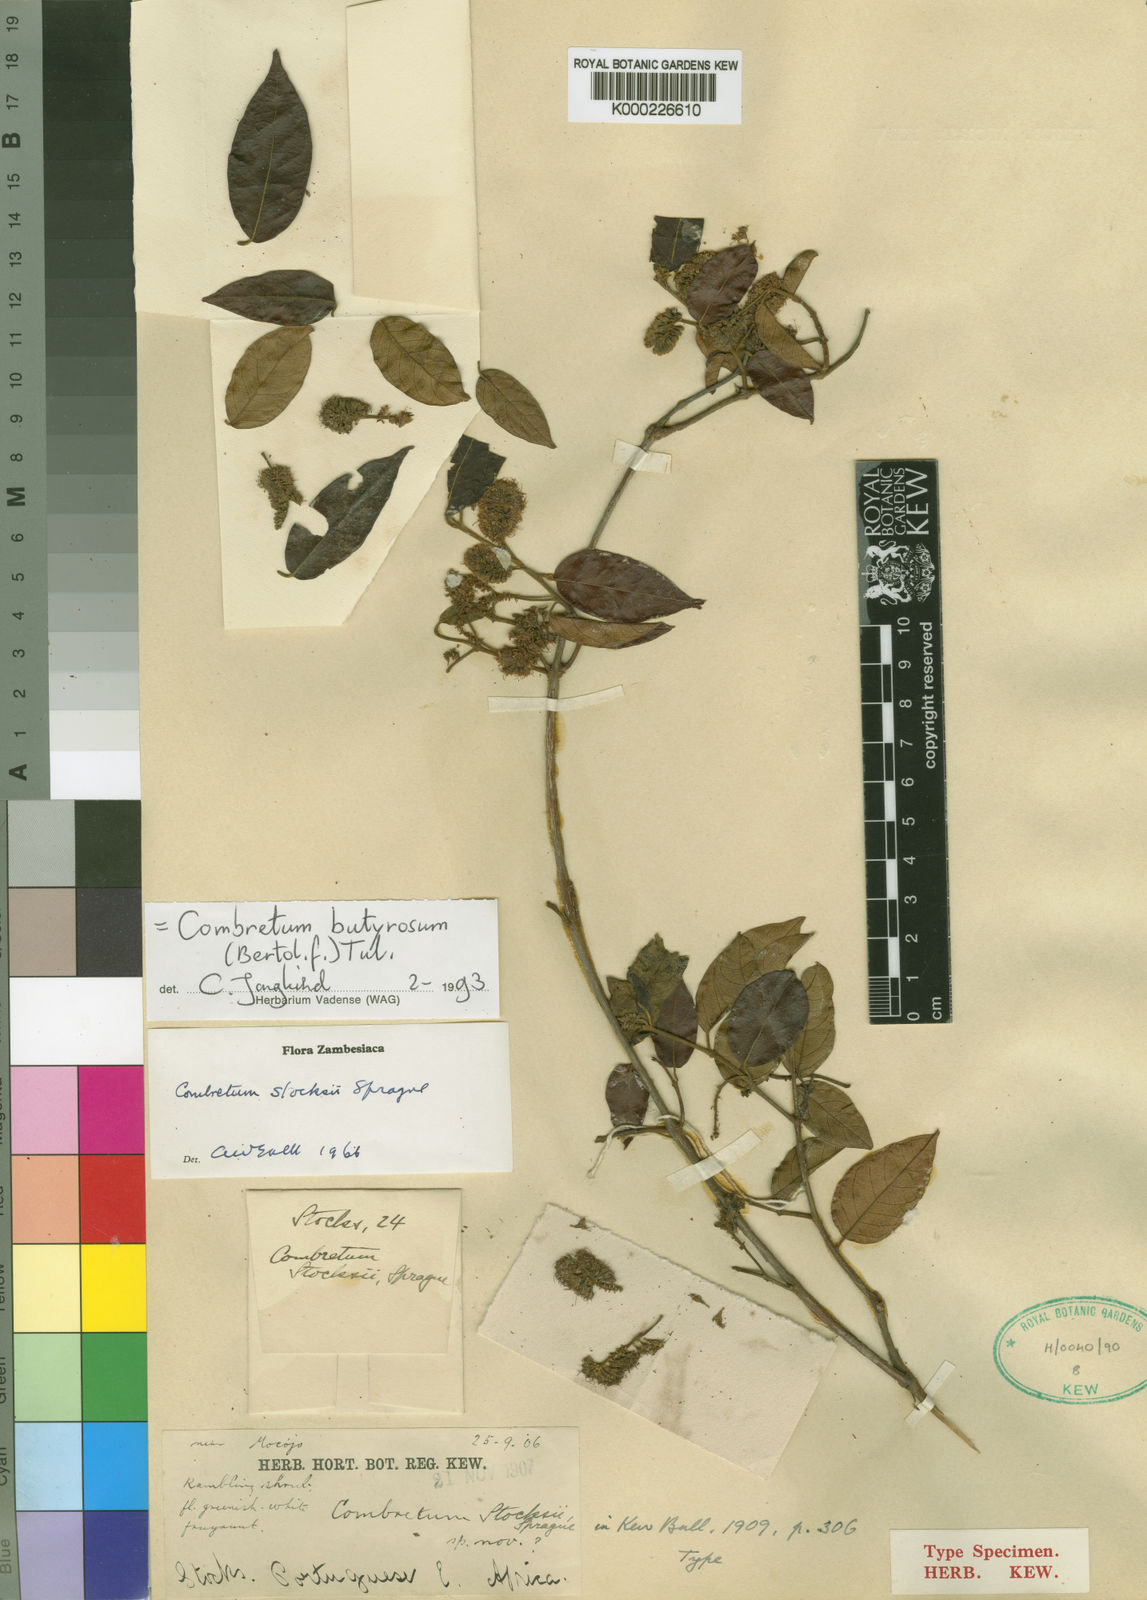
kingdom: Plantae
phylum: Tracheophyta
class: Magnoliopsida
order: Myrtales
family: Combretaceae
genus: Combretum
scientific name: Combretum butyrosum
